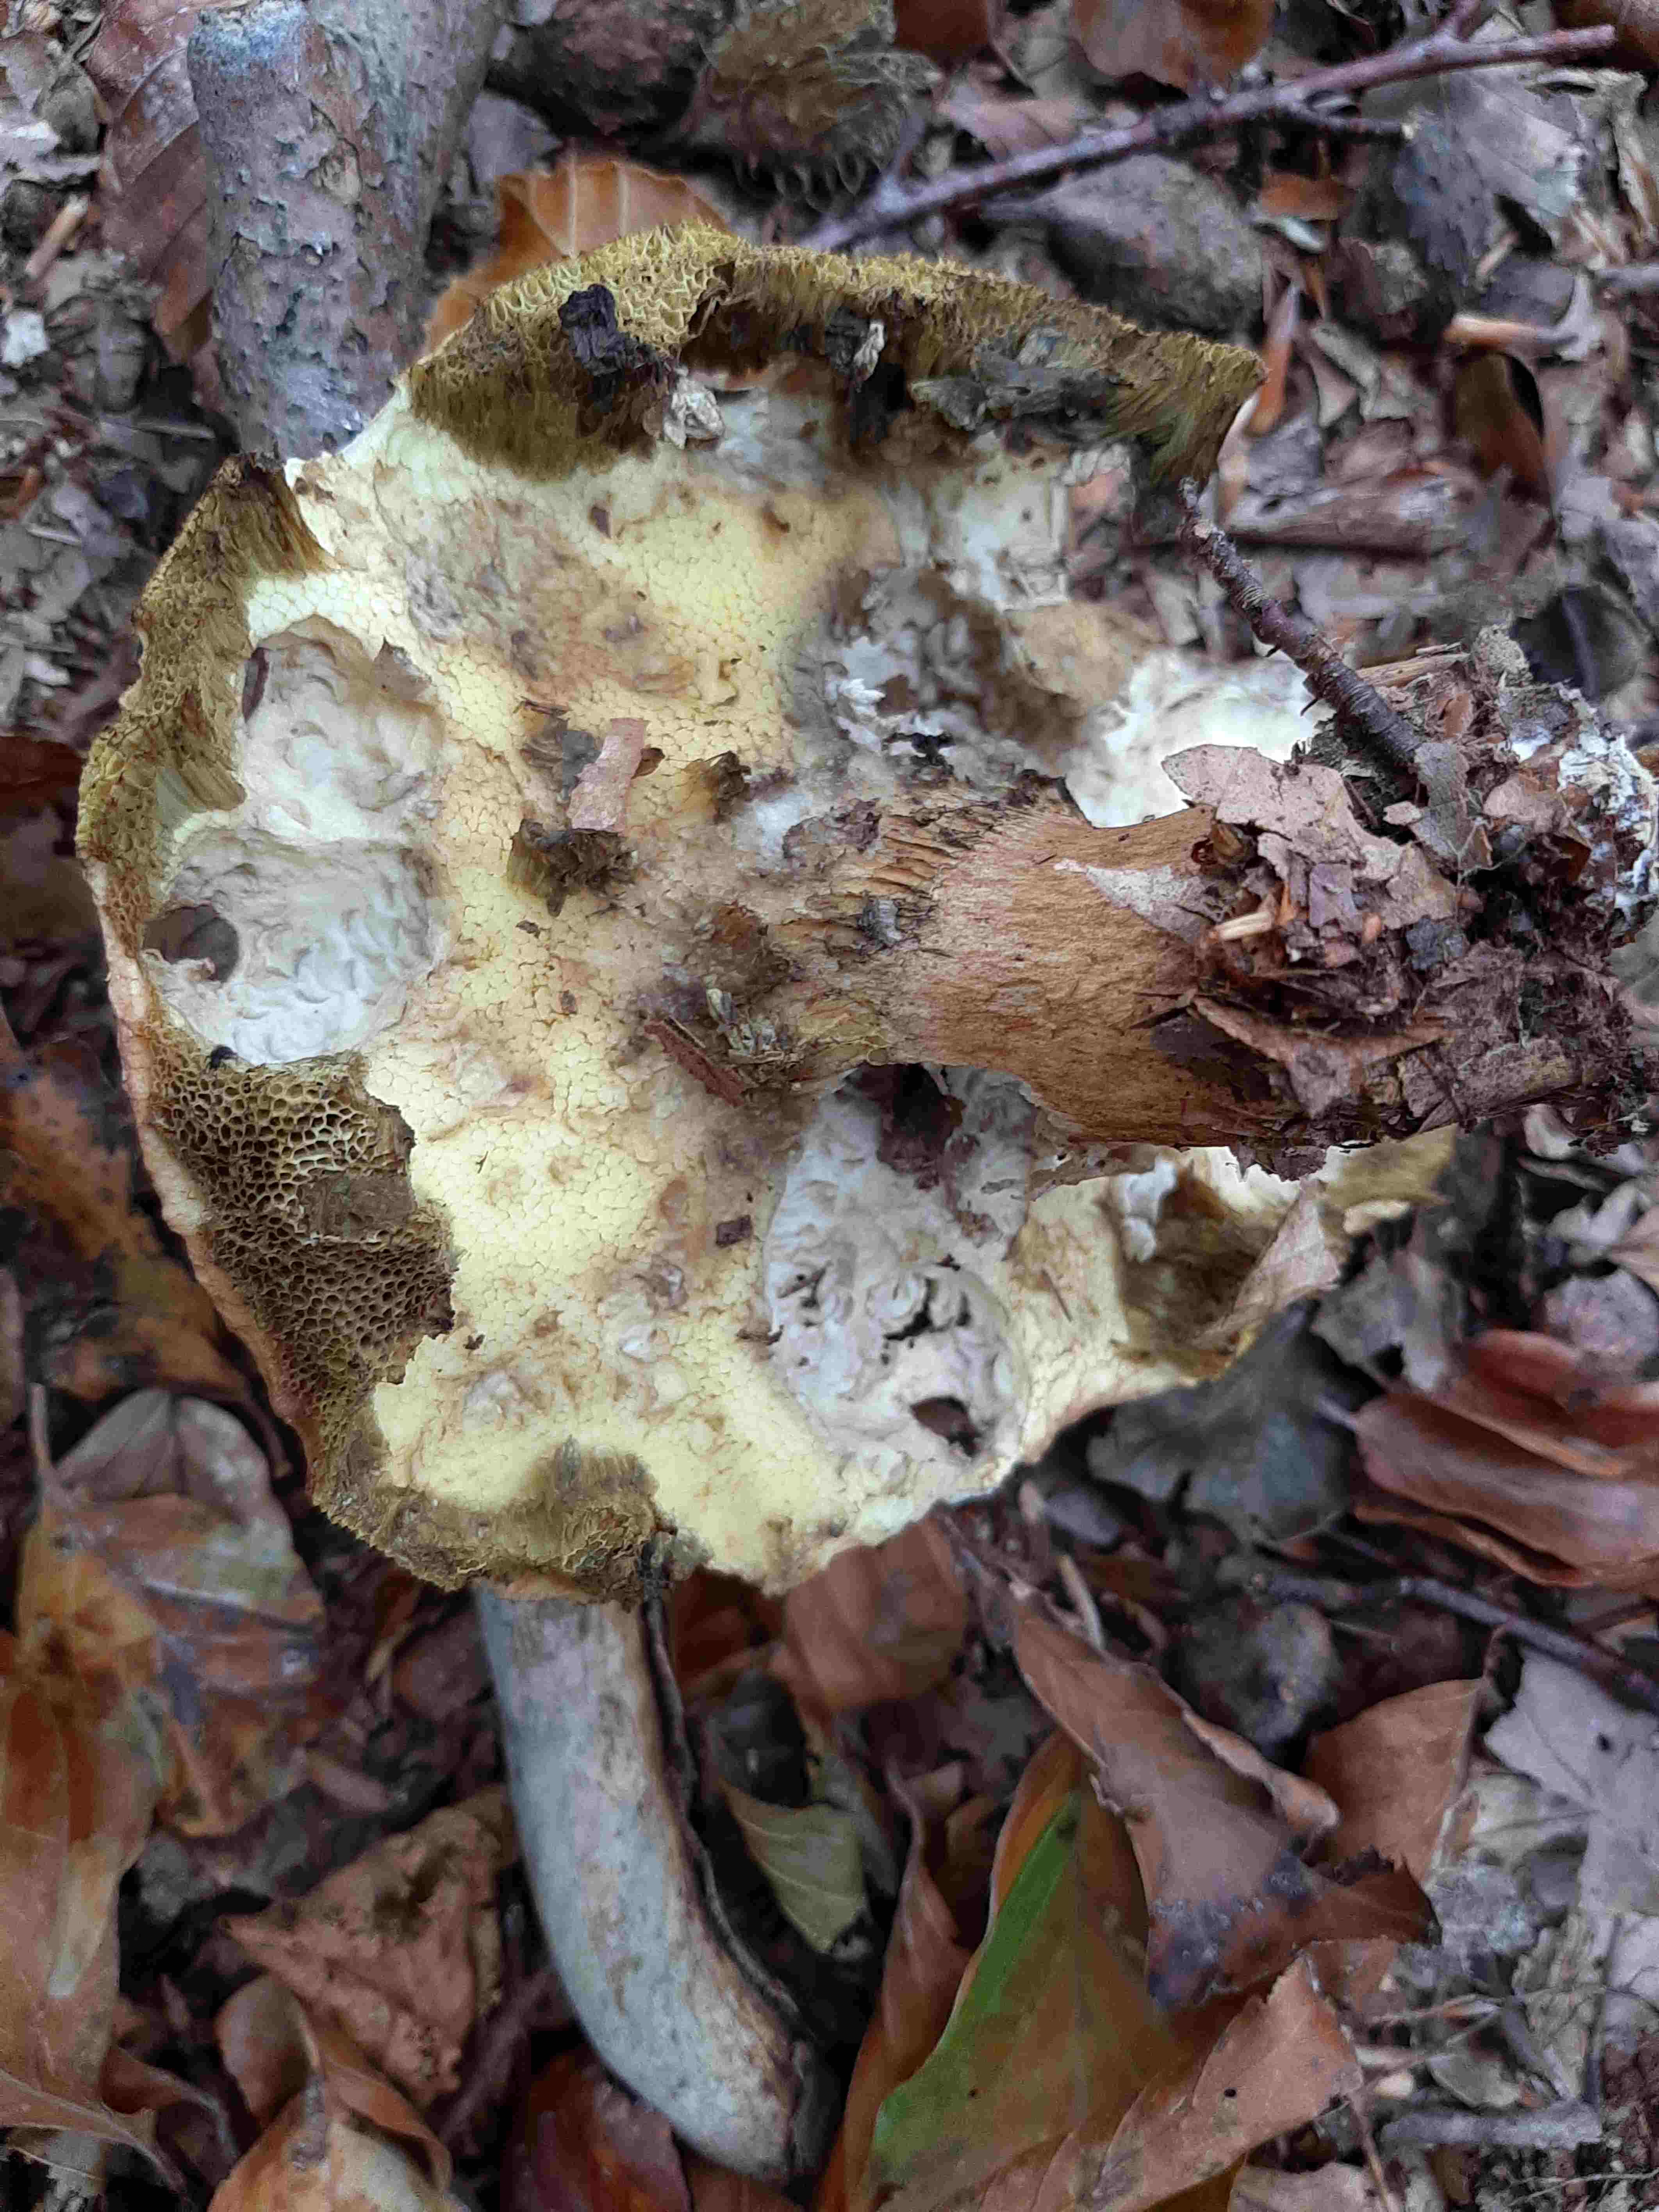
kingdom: Fungi
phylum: Basidiomycota
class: Agaricomycetes
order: Boletales
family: Boletaceae
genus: Imleria
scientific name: Imleria badia
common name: brunstokket rørhat
